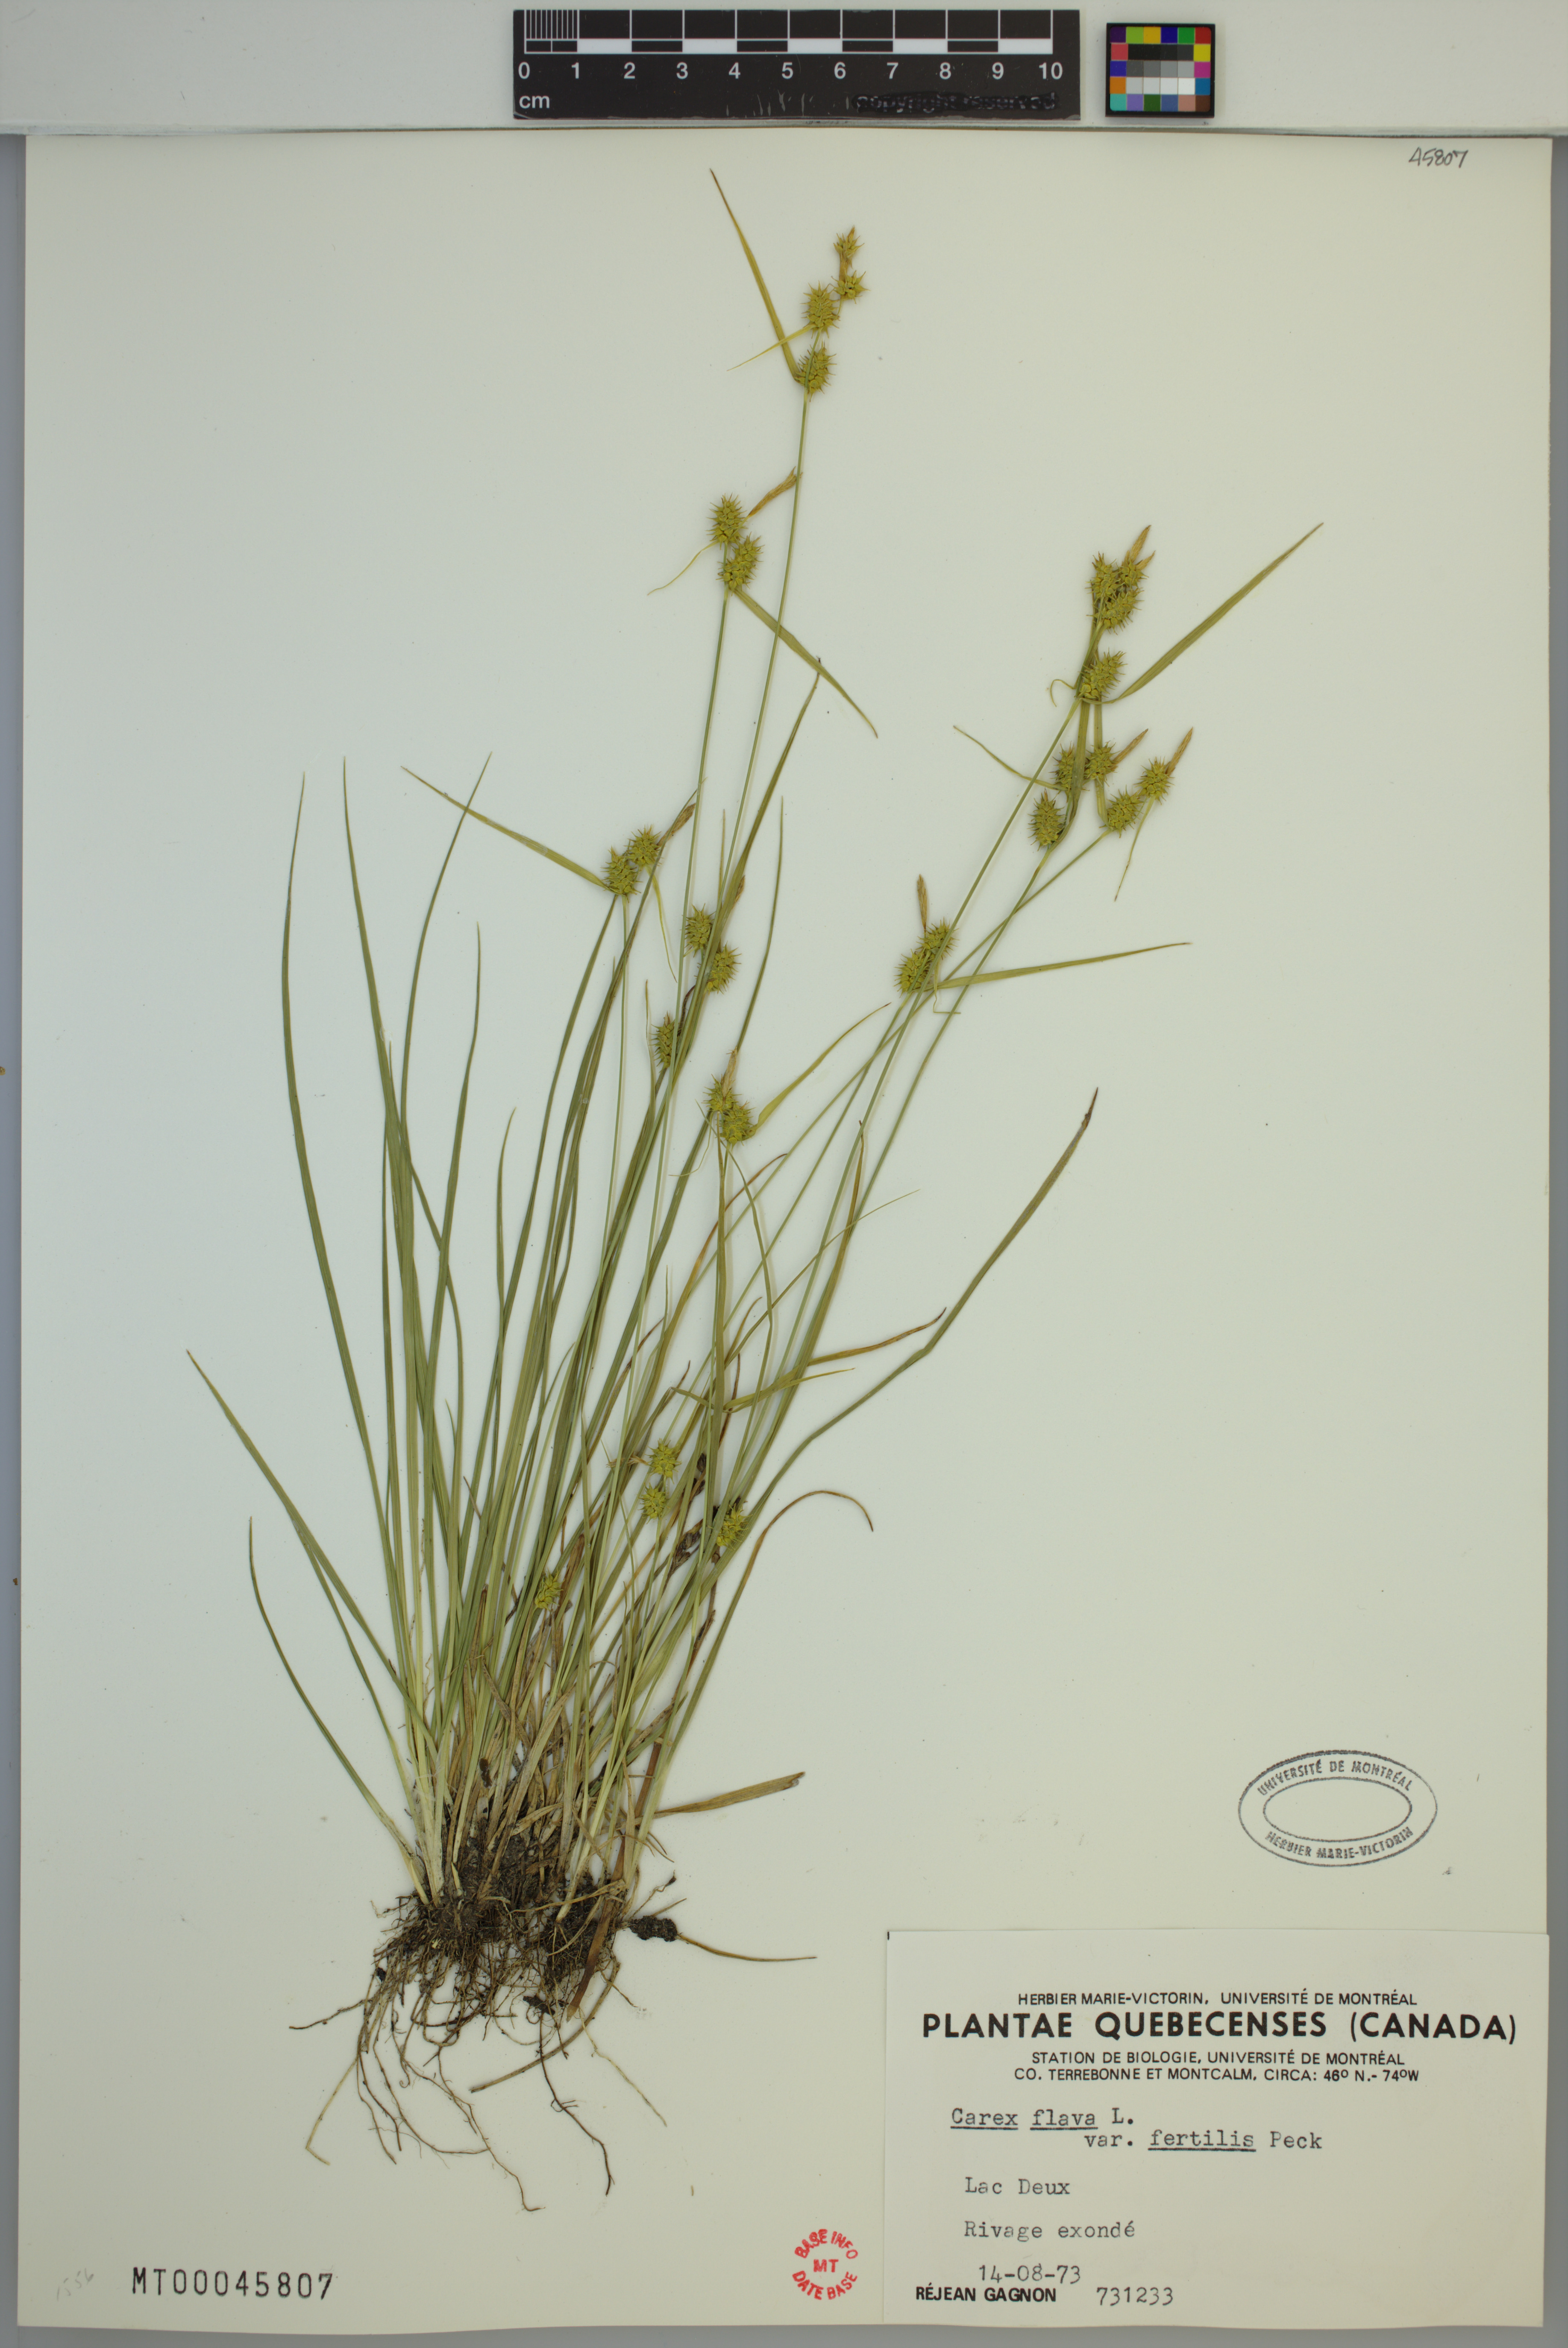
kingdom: Plantae
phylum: Tracheophyta
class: Liliopsida
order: Poales
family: Cyperaceae
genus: Carex
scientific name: Carex flava
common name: Large yellow-sedge
